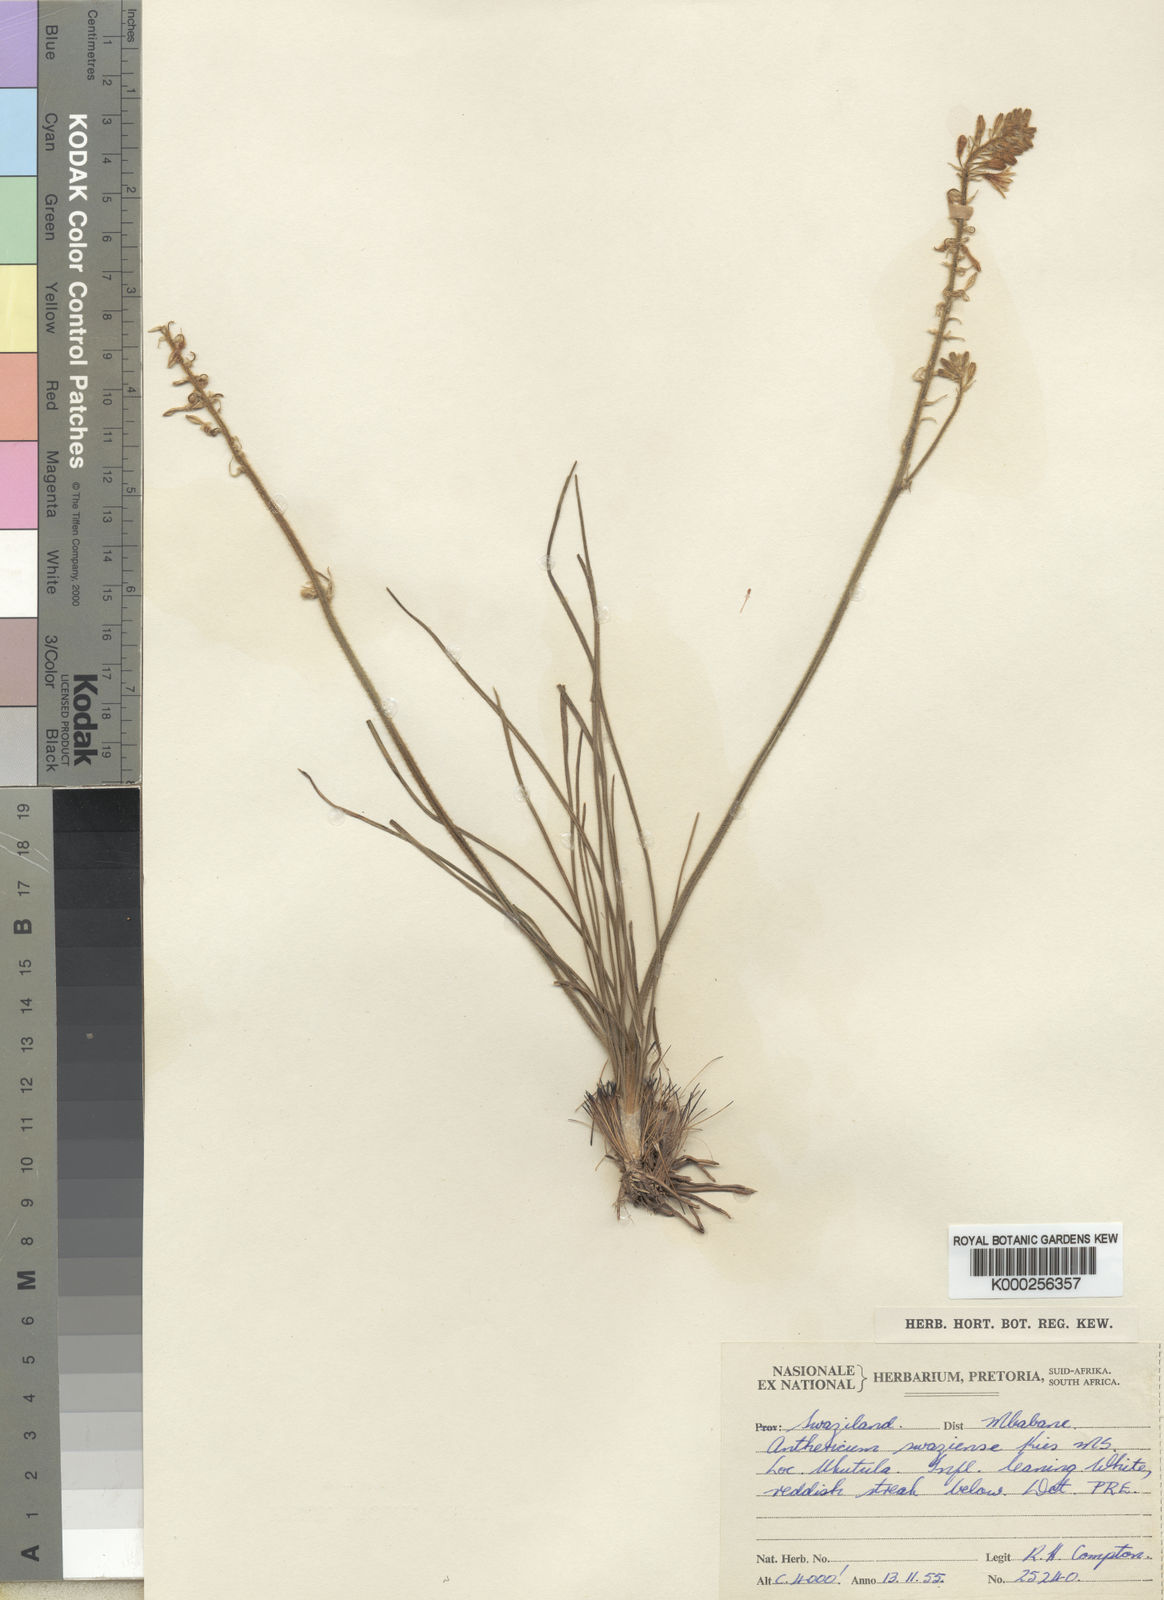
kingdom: Plantae
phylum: Tracheophyta
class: Liliopsida
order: Asparagales
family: Asphodelaceae
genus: Trachyandra
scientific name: Trachyandra asperata
